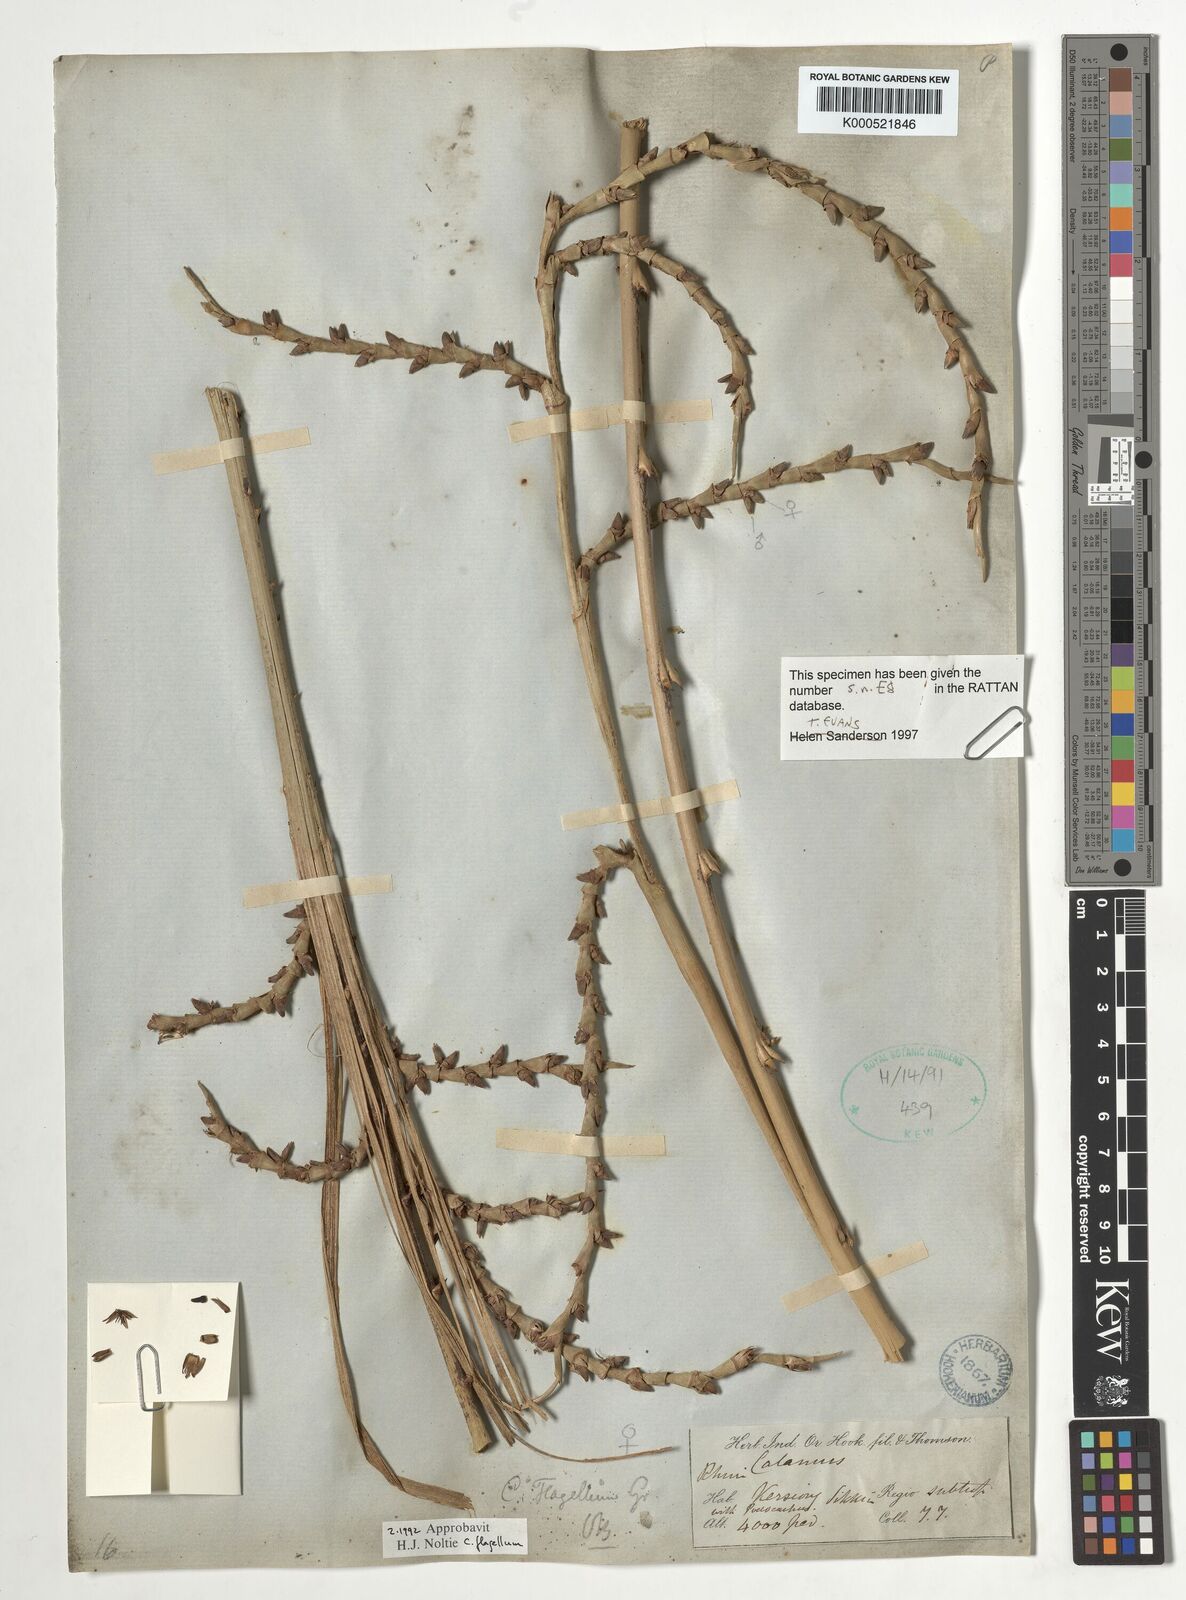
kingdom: Plantae
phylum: Tracheophyta
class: Liliopsida
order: Arecales
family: Arecaceae
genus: Calamus
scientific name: Calamus
